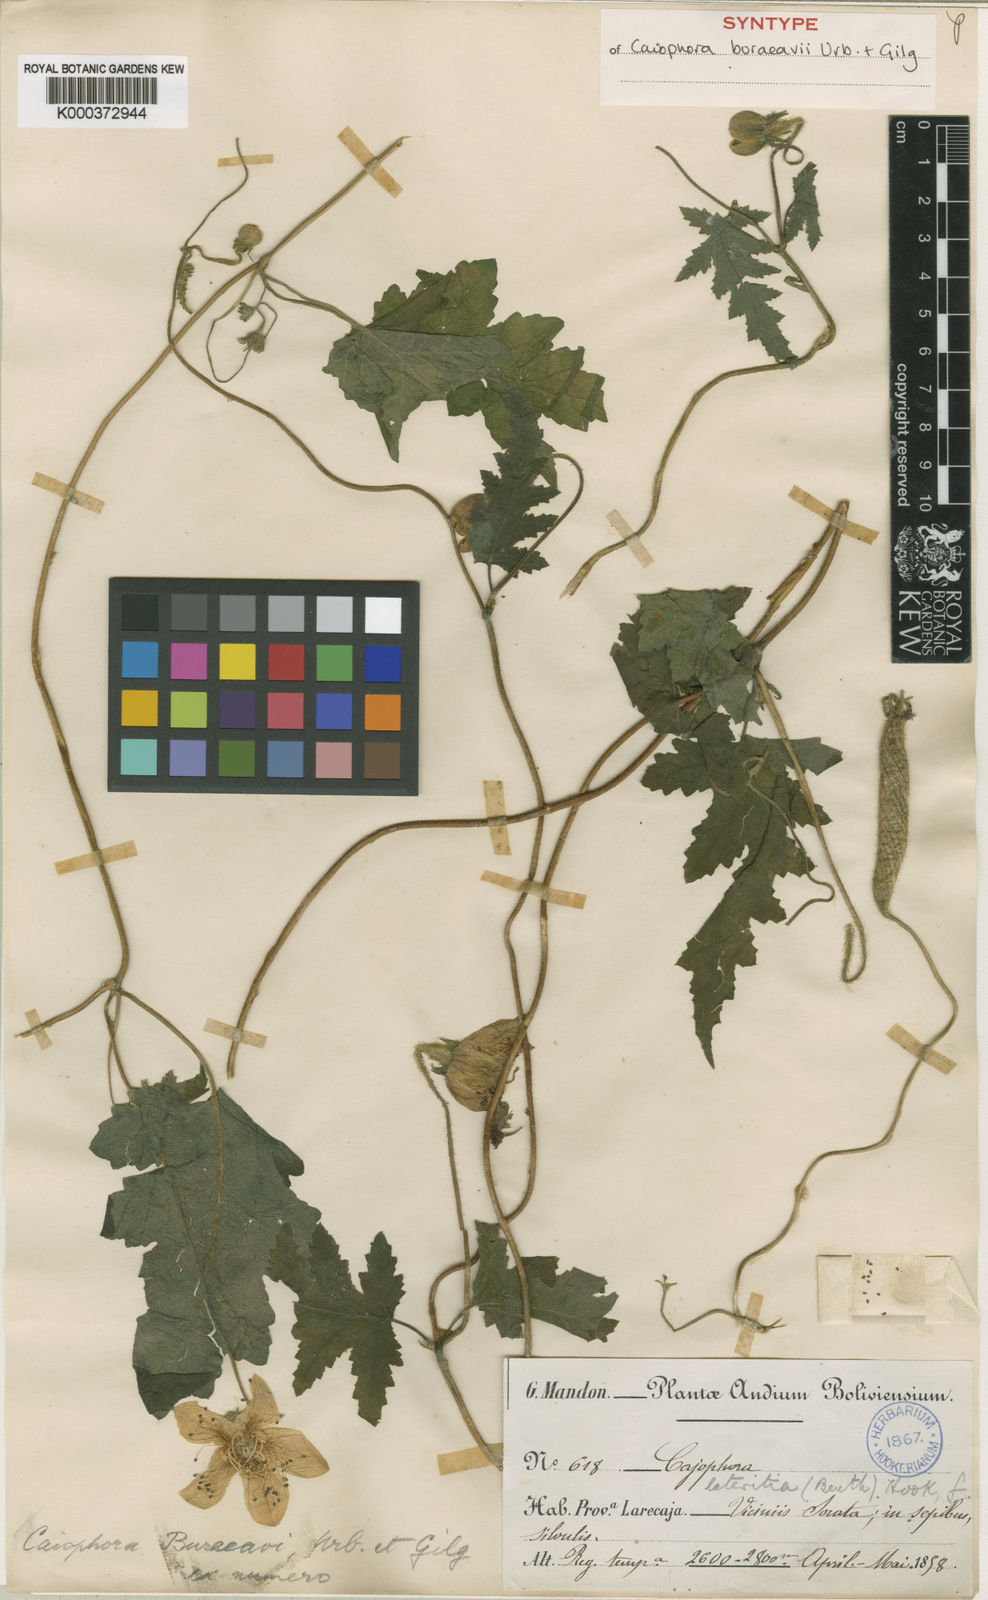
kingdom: Plantae
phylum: Tracheophyta
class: Magnoliopsida
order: Cornales
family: Loasaceae
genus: Caiophora
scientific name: Caiophora buraeavii
